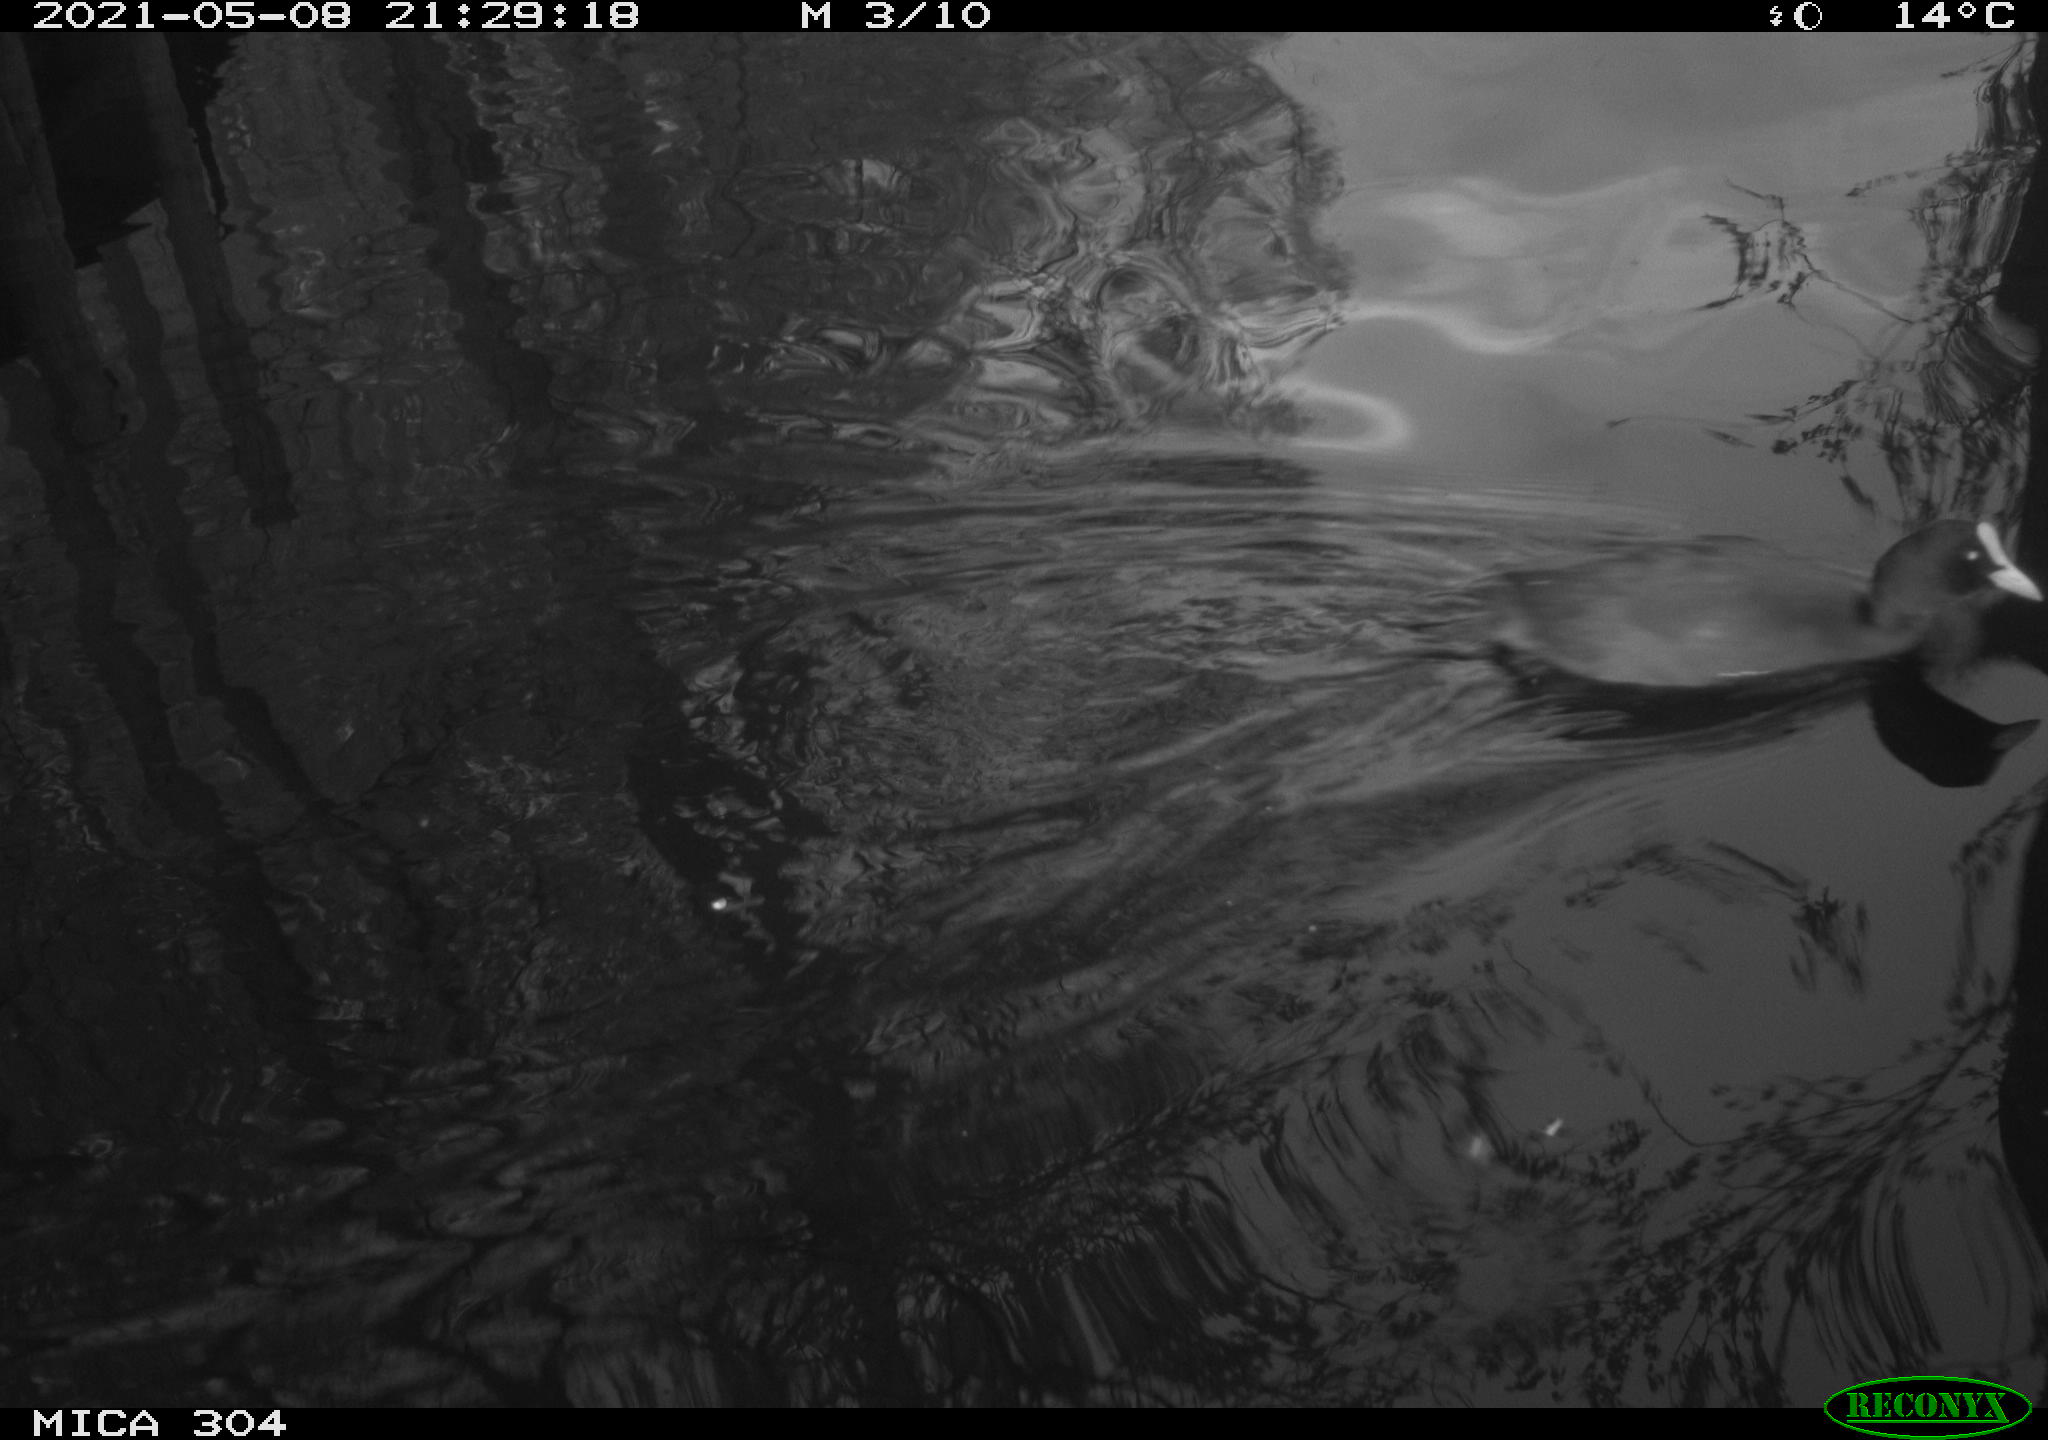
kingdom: Animalia
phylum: Chordata
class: Aves
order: Gruiformes
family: Rallidae
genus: Fulica
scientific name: Fulica atra
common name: Eurasian coot
